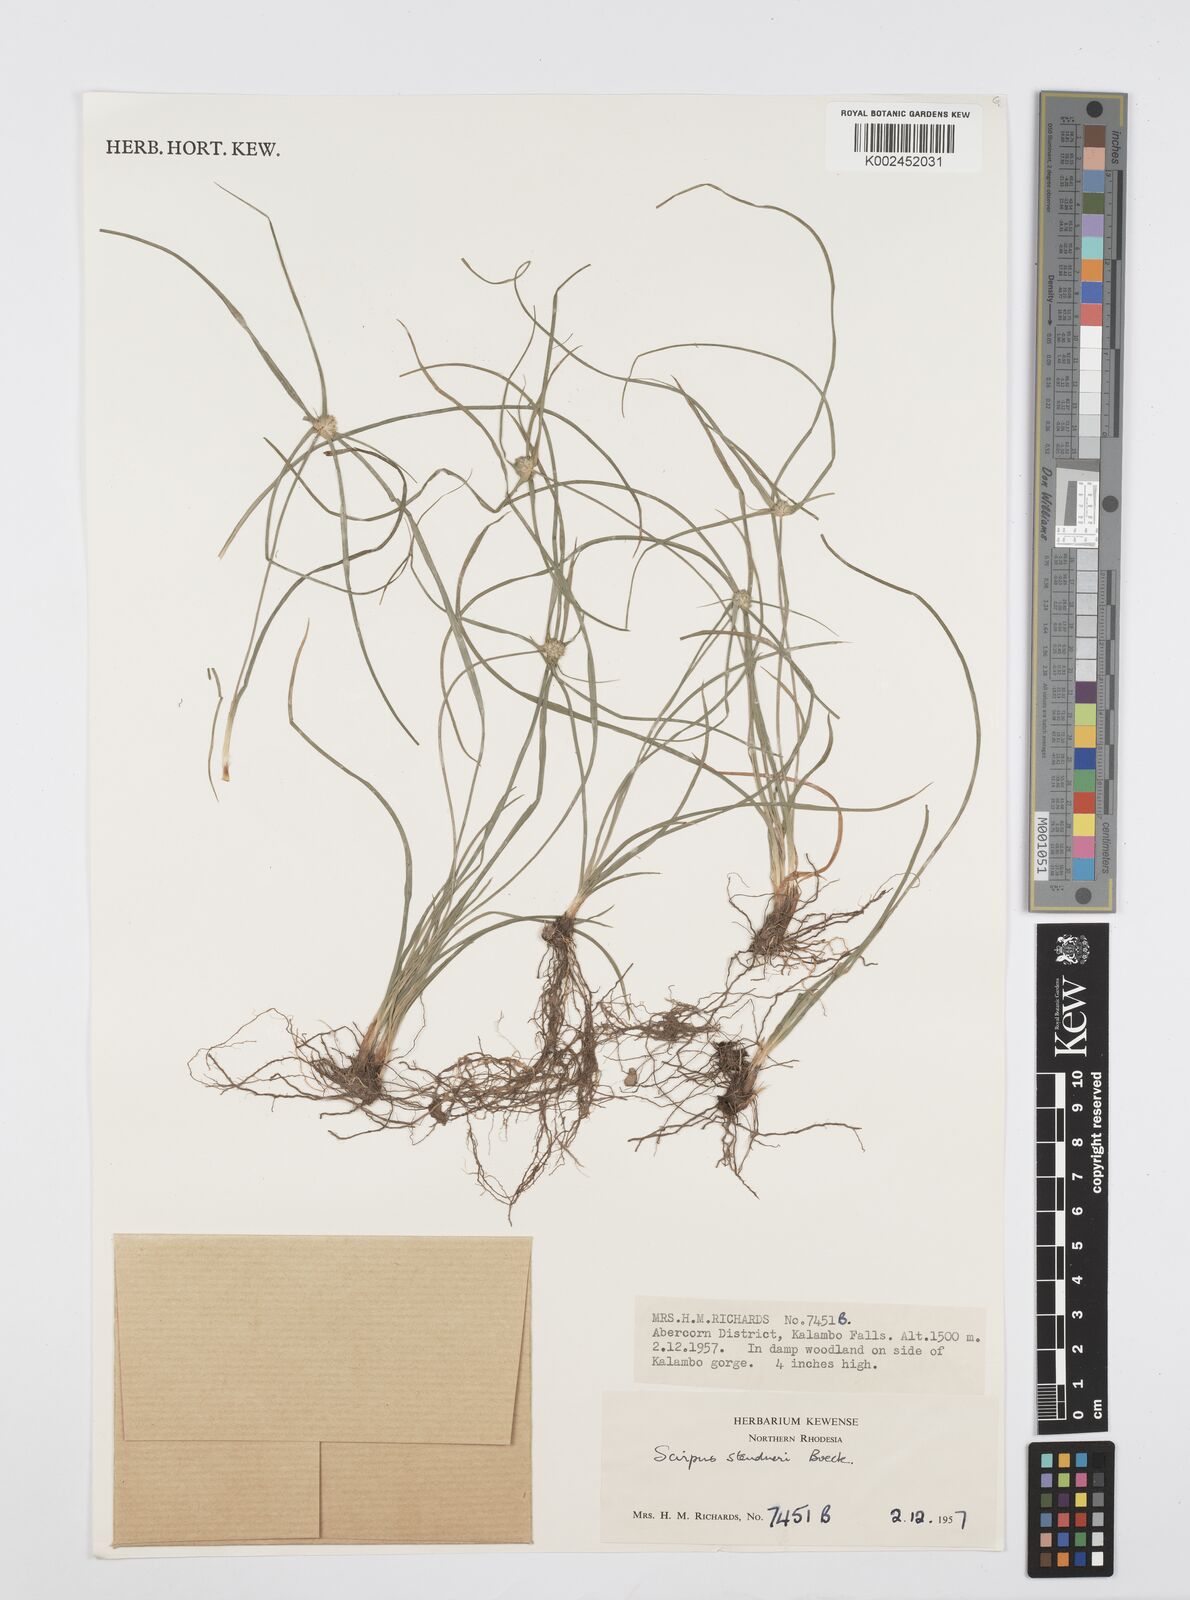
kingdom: Plantae
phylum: Tracheophyta
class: Liliopsida
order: Poales
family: Cyperaceae
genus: Cyperus
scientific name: Cyperus bulbosus
